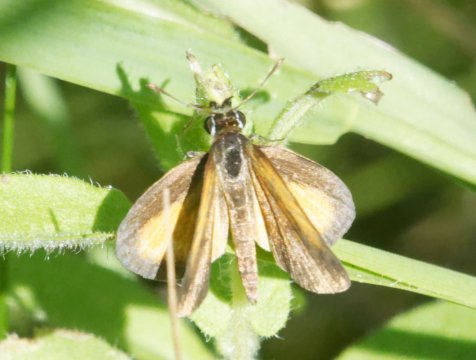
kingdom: Animalia
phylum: Arthropoda
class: Insecta
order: Lepidoptera
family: Hesperiidae
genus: Ancyloxypha
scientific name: Ancyloxypha numitor
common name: Least Skipper
